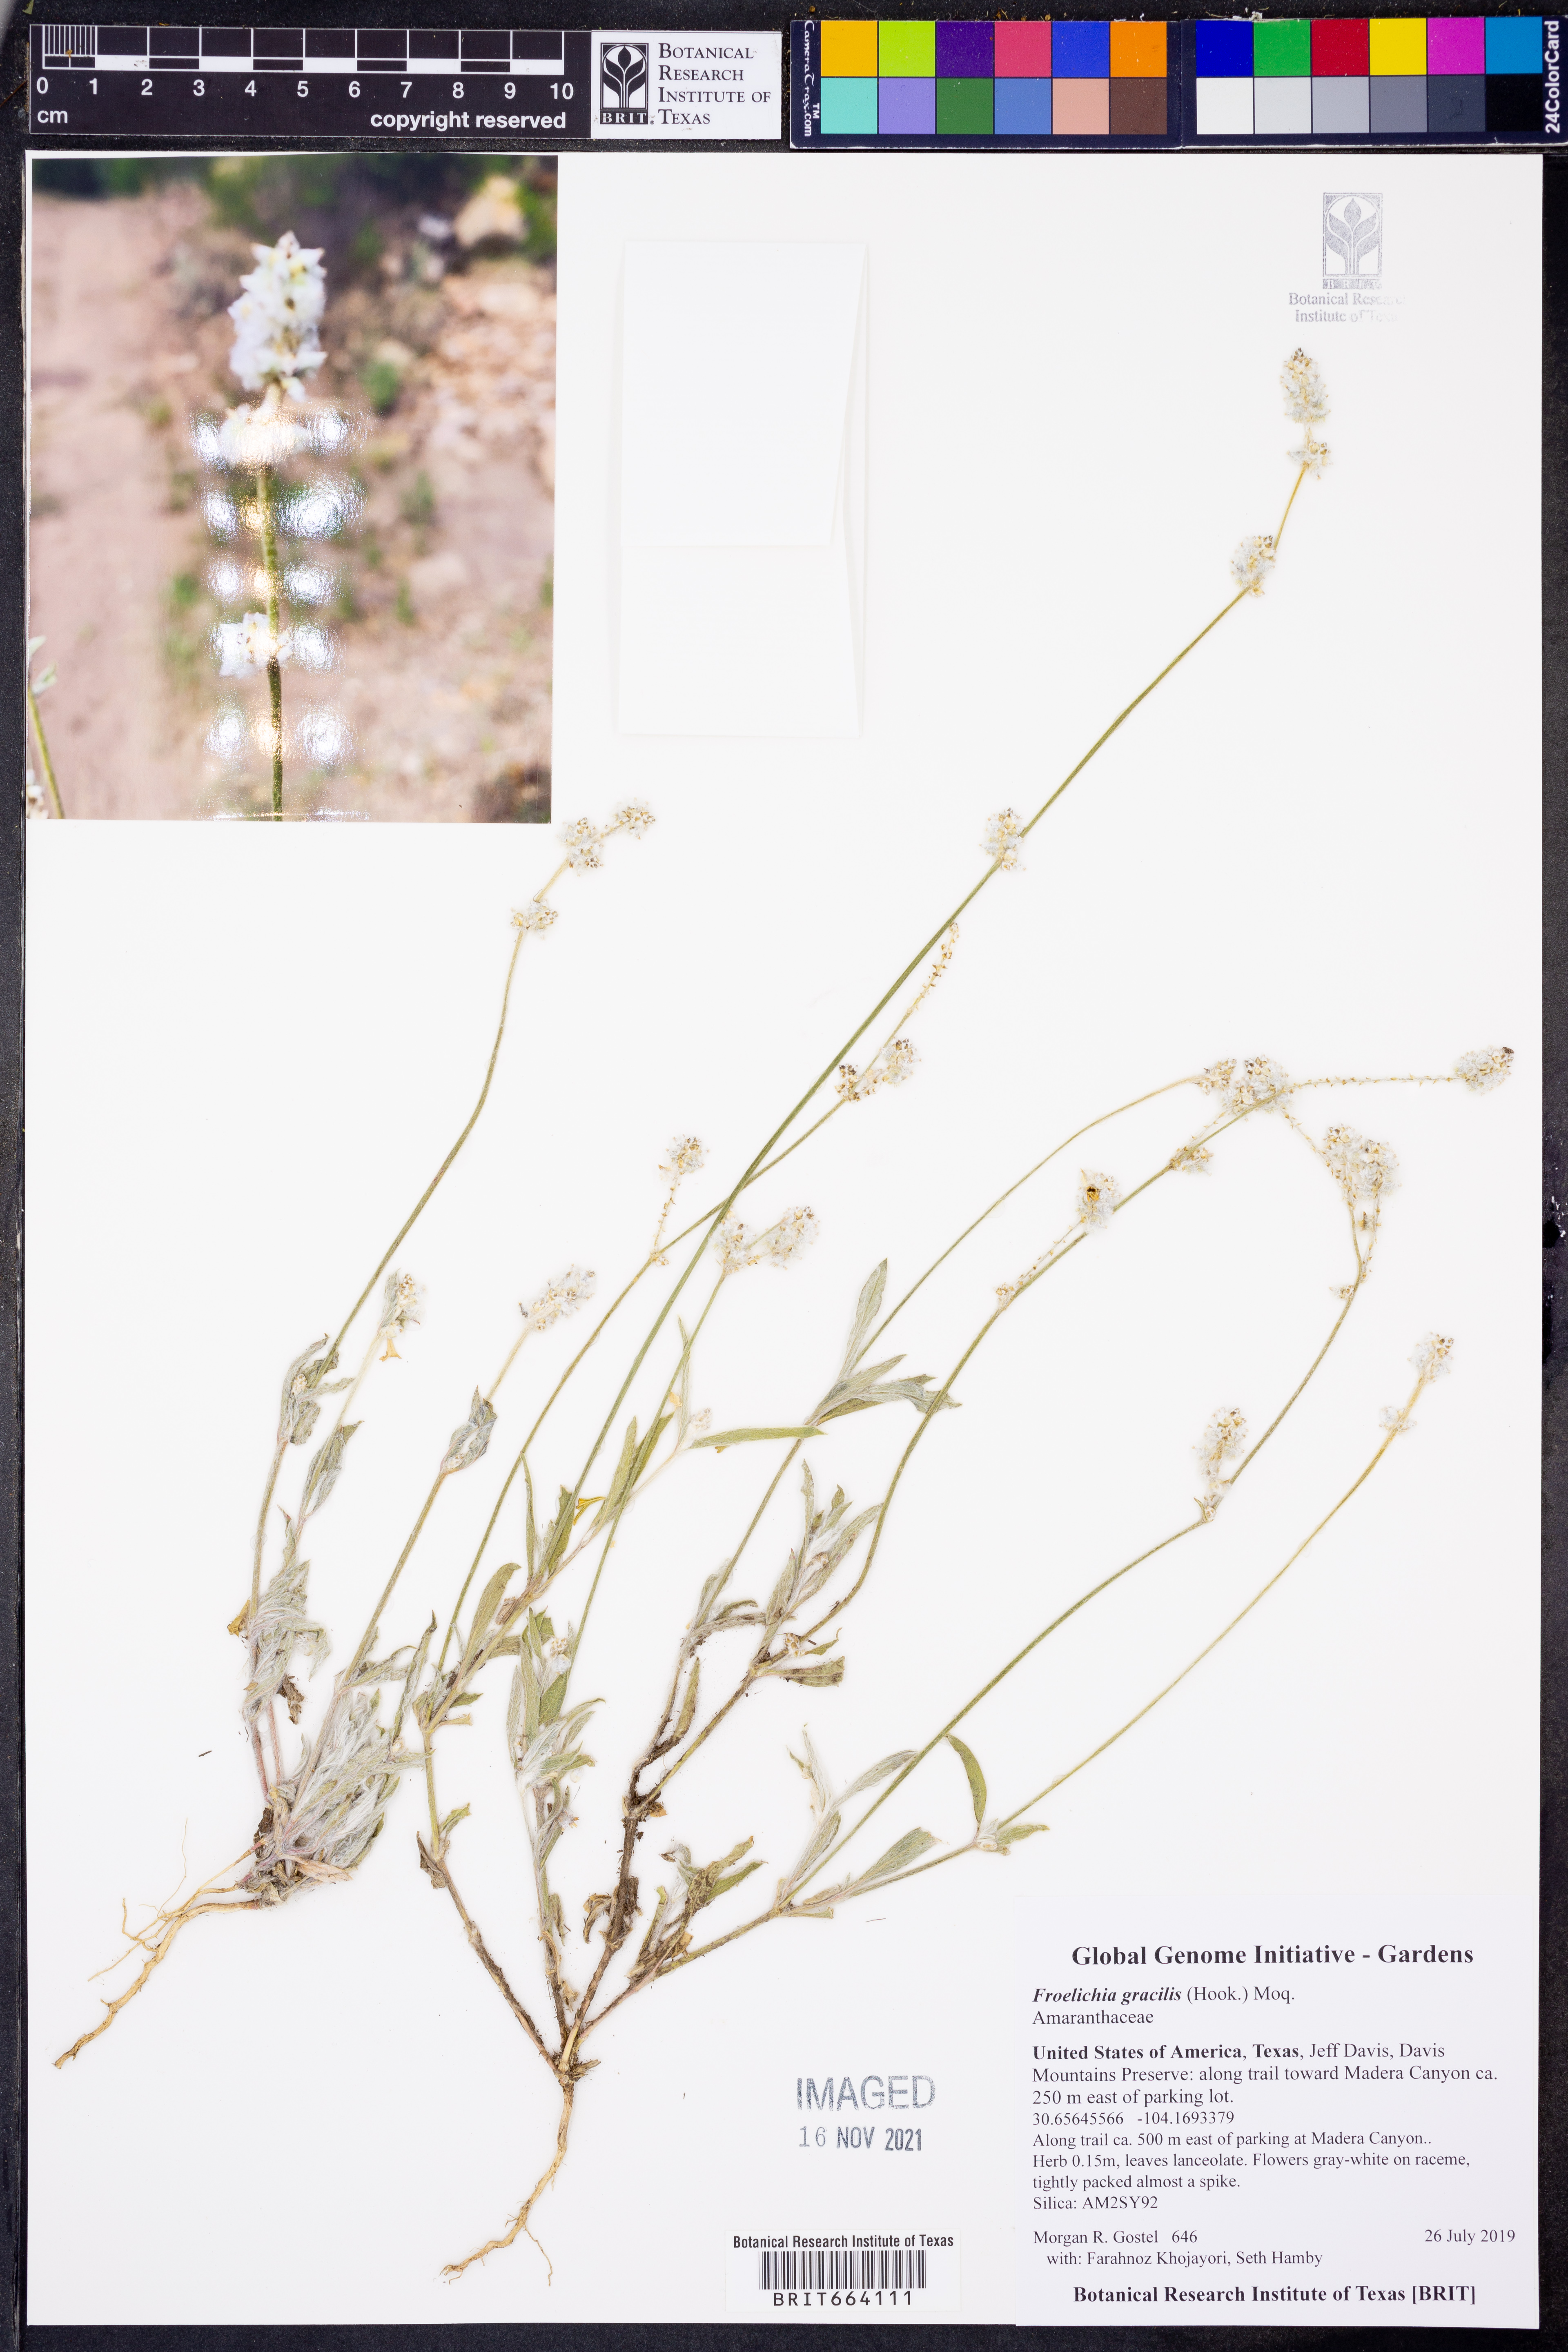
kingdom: Plantae
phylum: Tracheophyta
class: Magnoliopsida
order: Caryophyllales
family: Amaranthaceae
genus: Froelichia
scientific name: Froelichia gracilis
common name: Slender cottonweed
